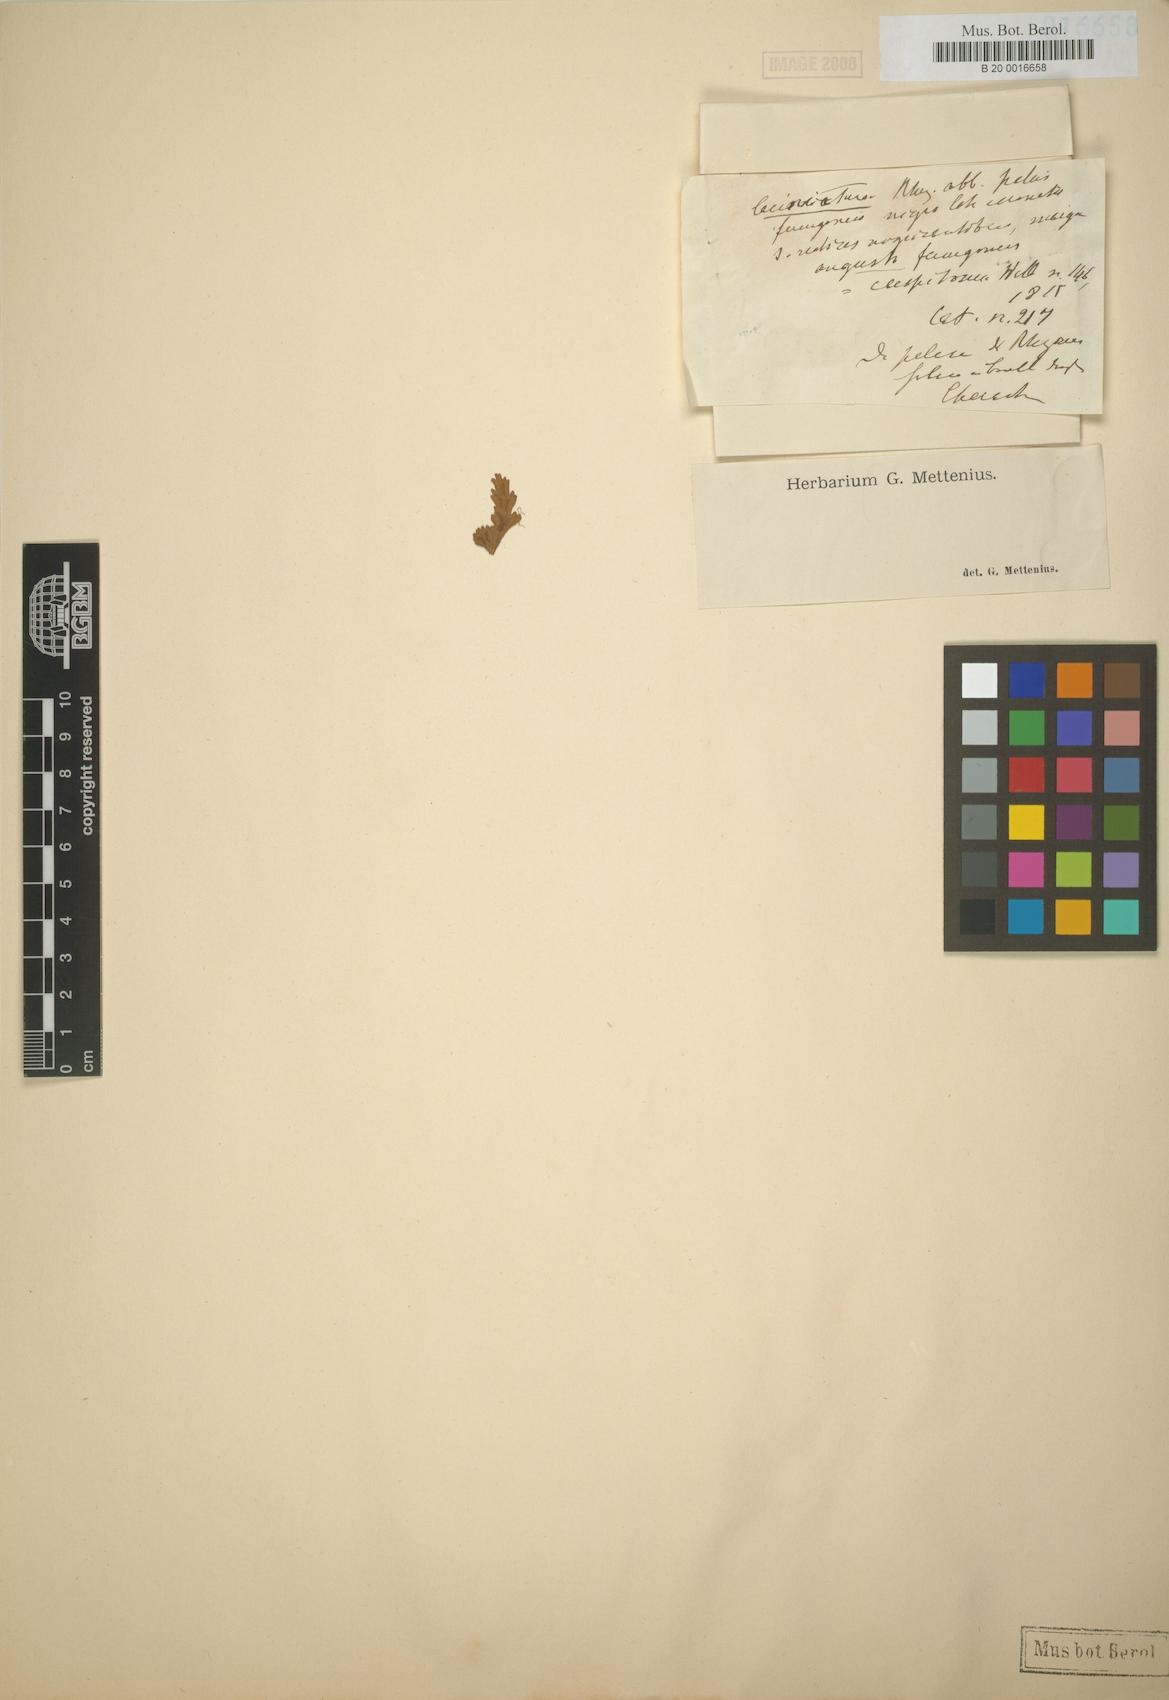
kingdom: Plantae
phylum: Tracheophyta
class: Polypodiopsida
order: Polypodiales
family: Aspleniaceae
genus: Asplenium
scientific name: Asplenium laciniatum
